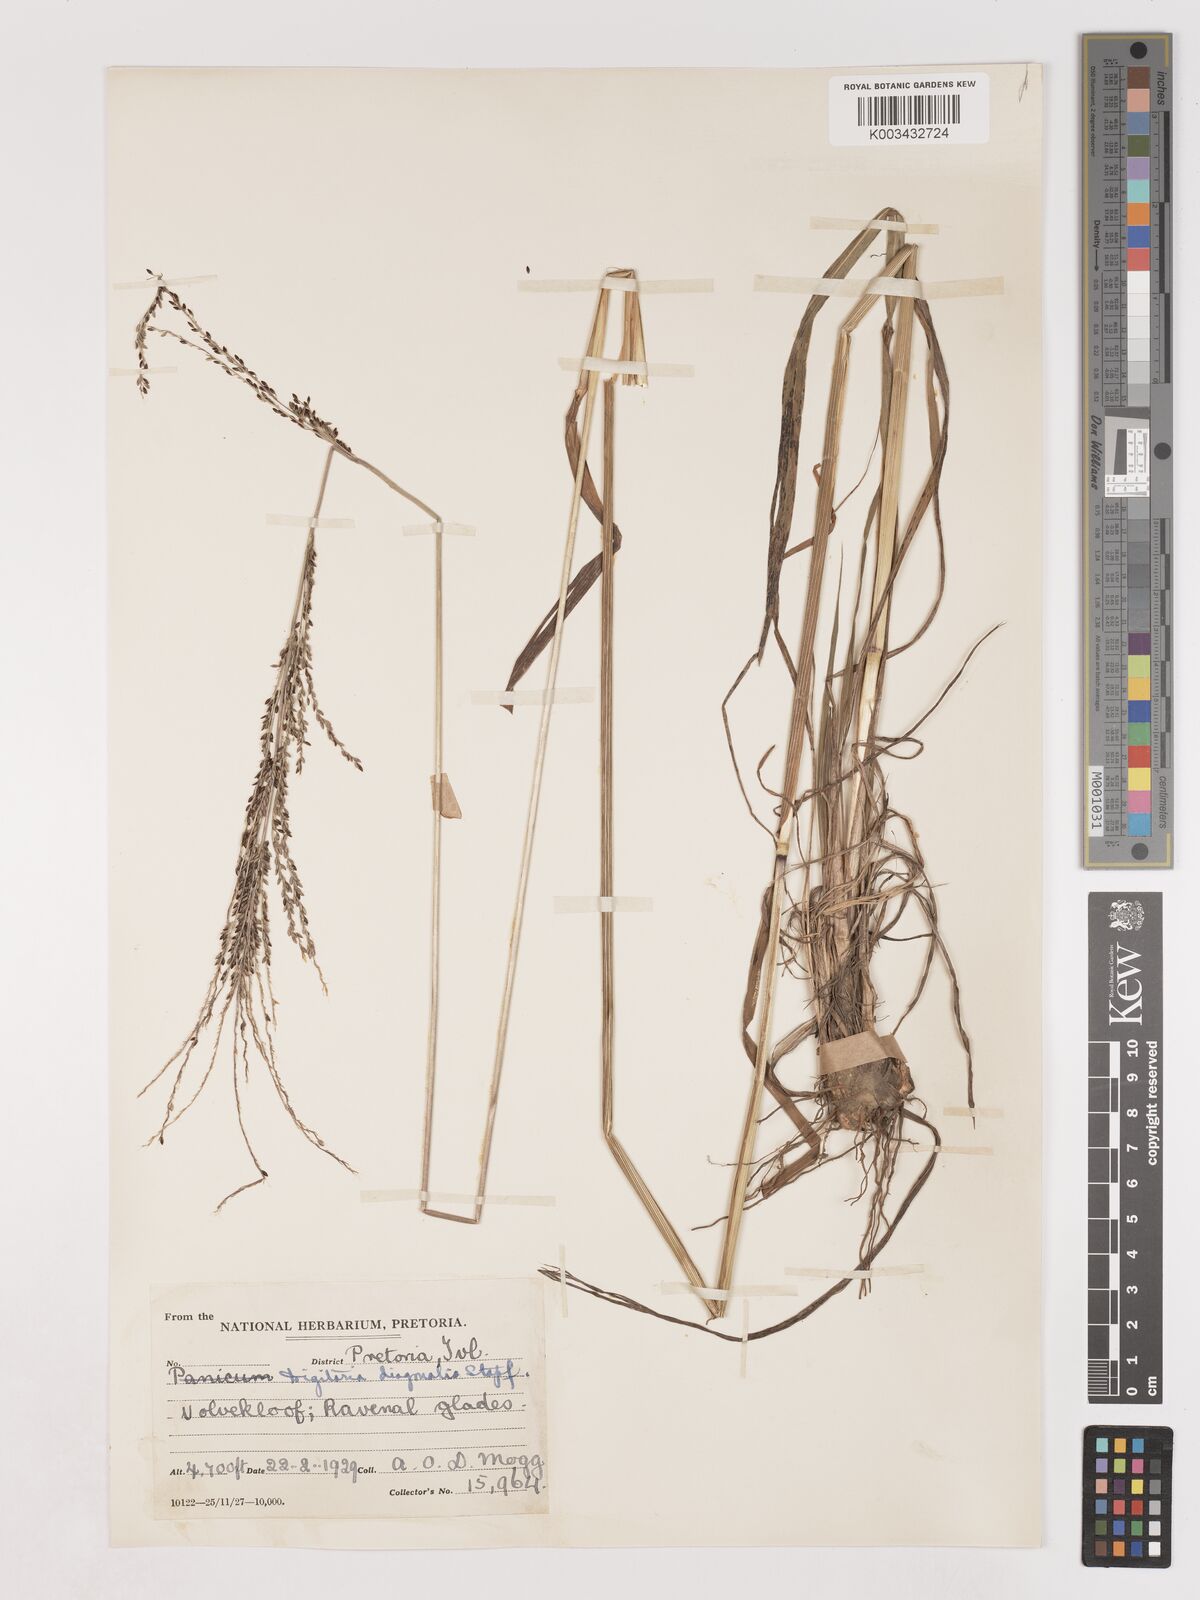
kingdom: Plantae
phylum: Tracheophyta
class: Liliopsida
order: Poales
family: Poaceae
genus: Digitaria
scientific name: Digitaria diagonalis
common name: Brown-seed finger grass
